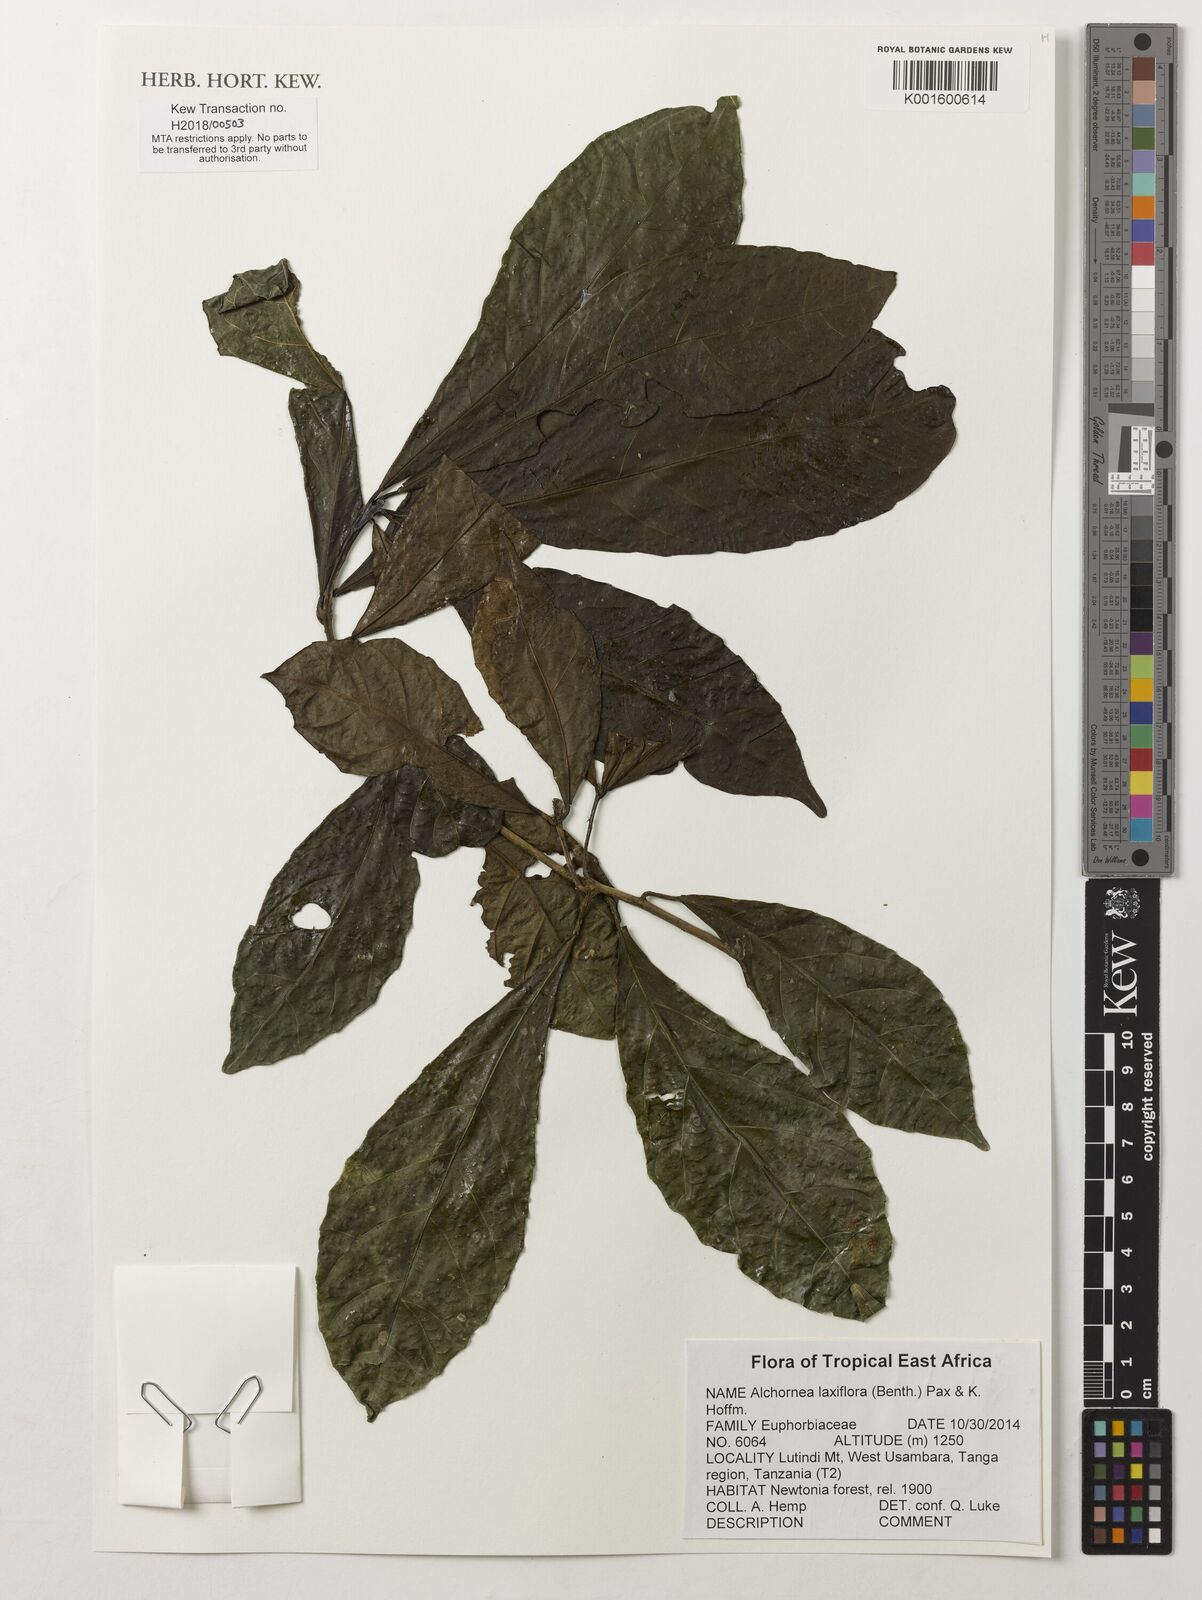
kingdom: Plantae
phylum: Tracheophyta
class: Magnoliopsida
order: Malpighiales
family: Euphorbiaceae
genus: Alchornea
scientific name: Alchornea laxiflora
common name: Lowveld bead-string
